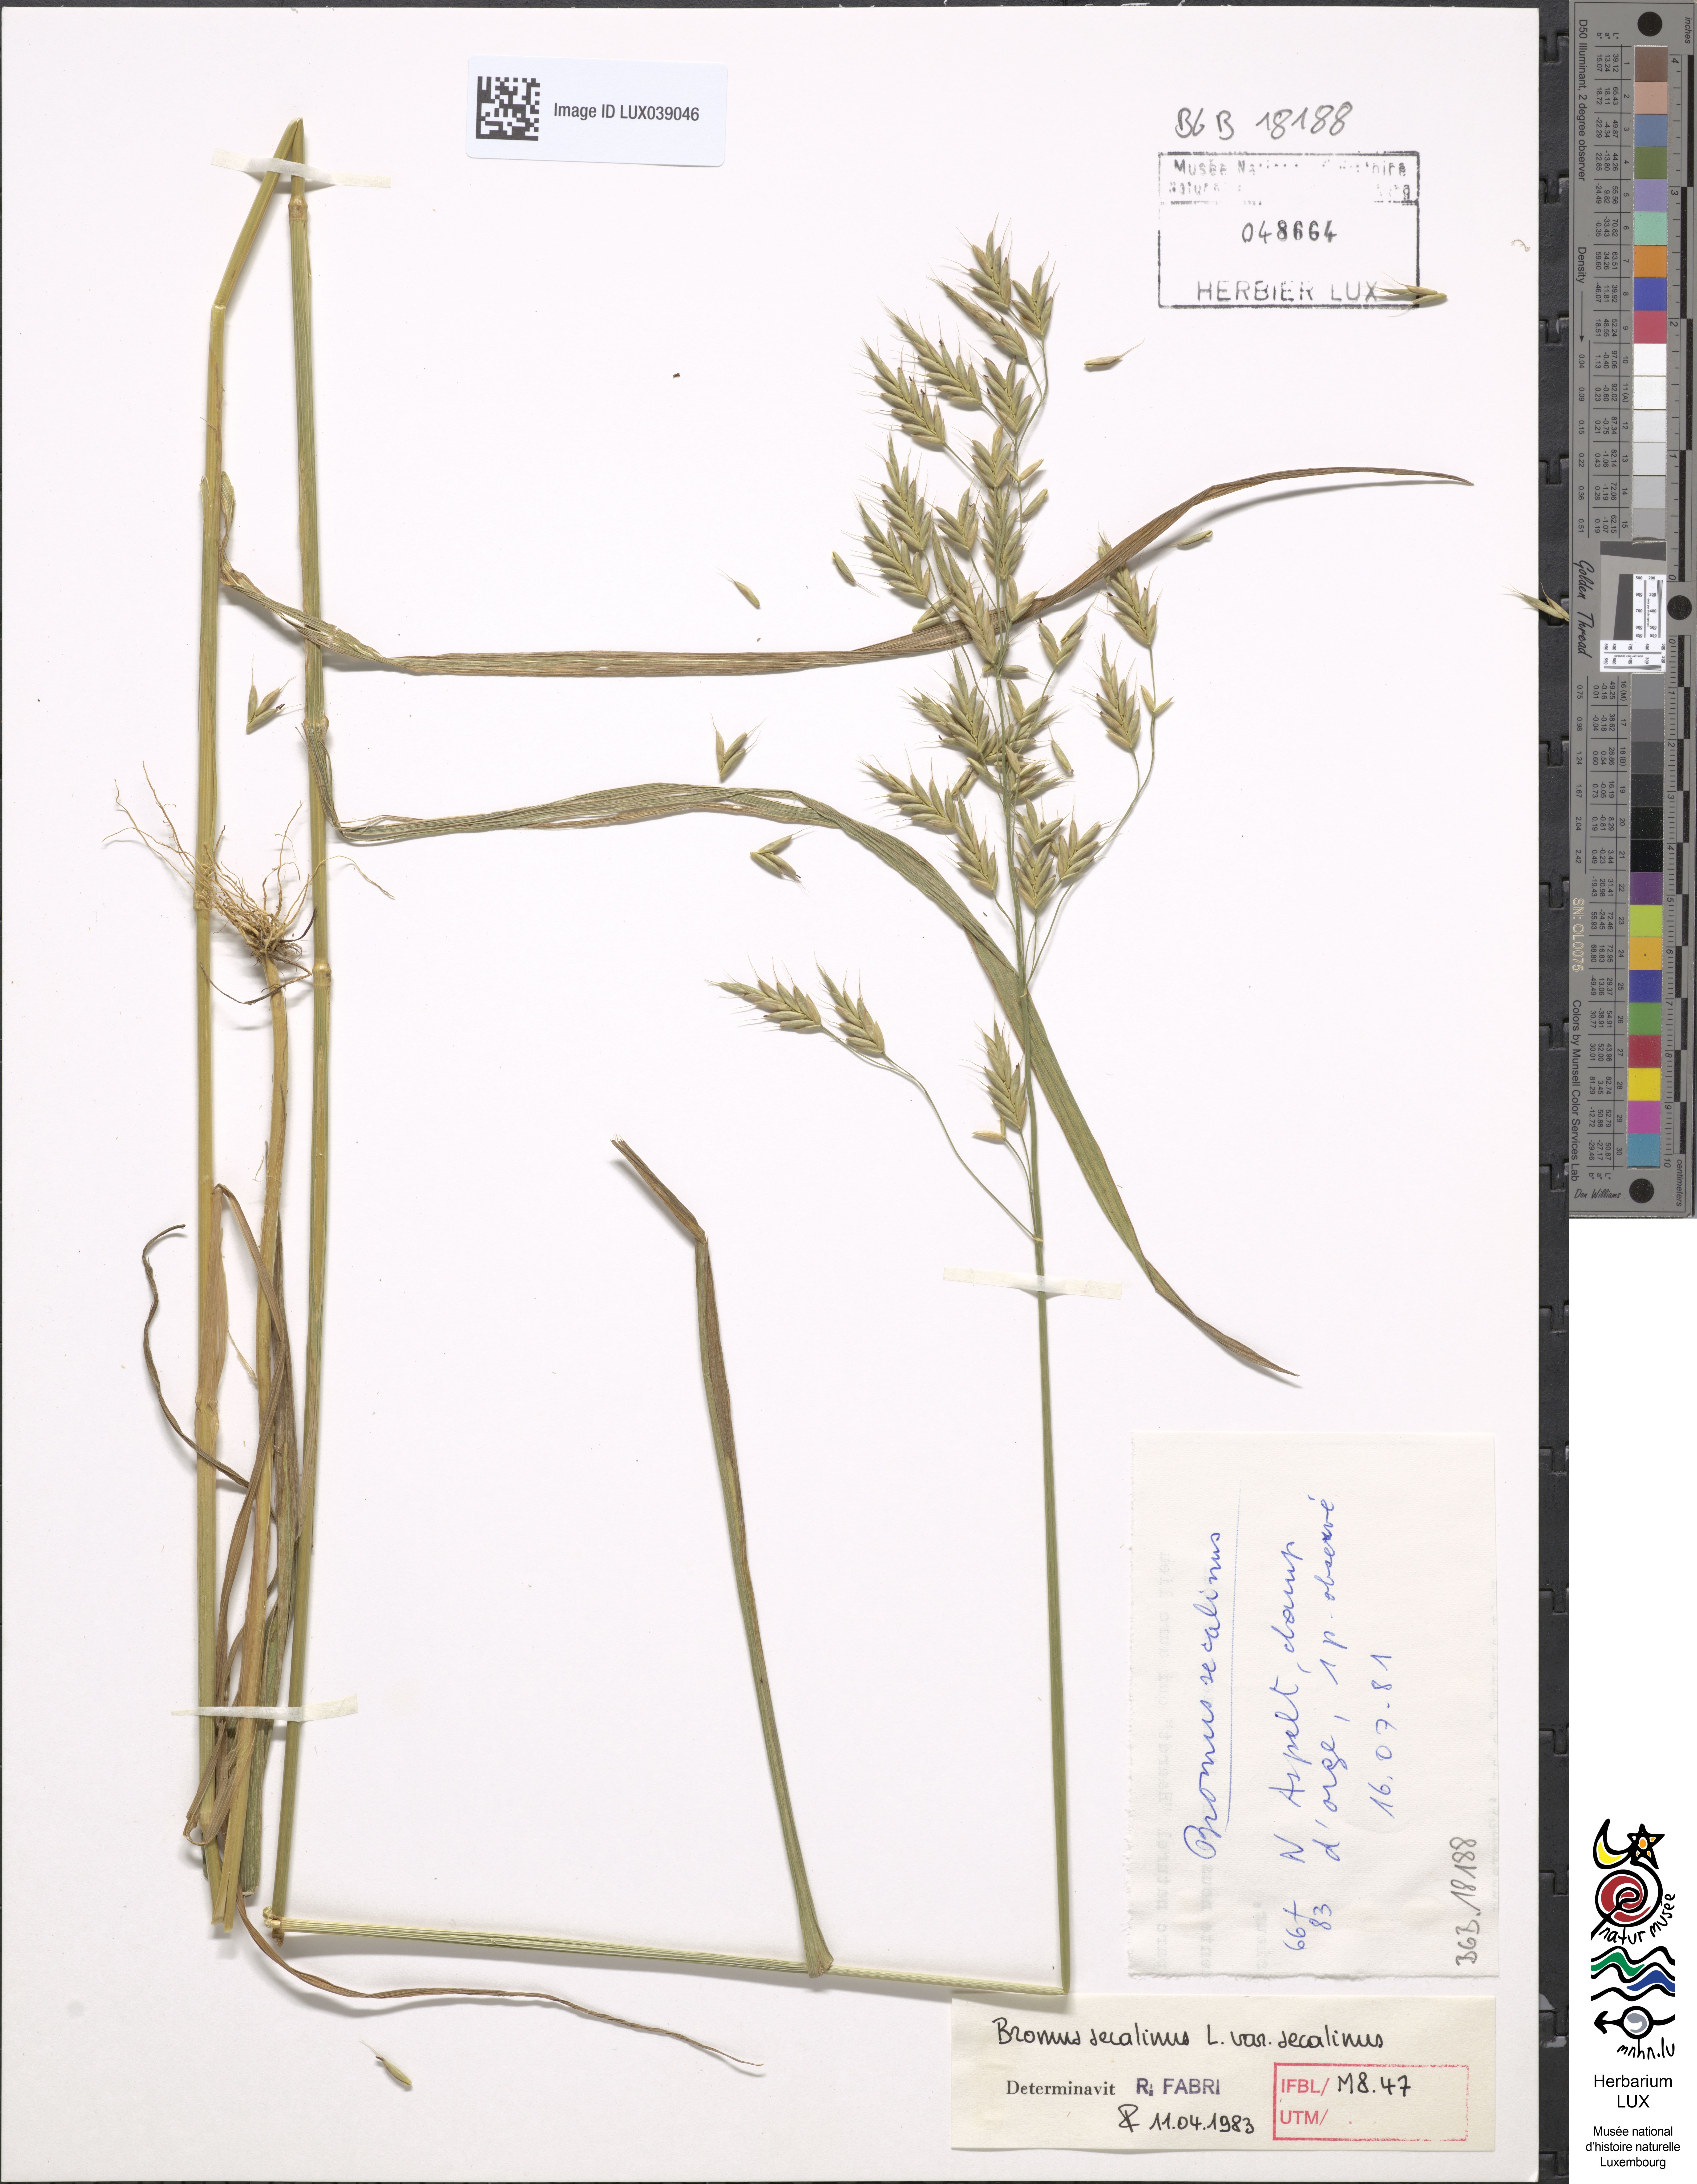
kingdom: Plantae
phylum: Tracheophyta
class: Liliopsida
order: Poales
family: Poaceae
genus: Bromus
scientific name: Bromus secalinus
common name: Rye brome
